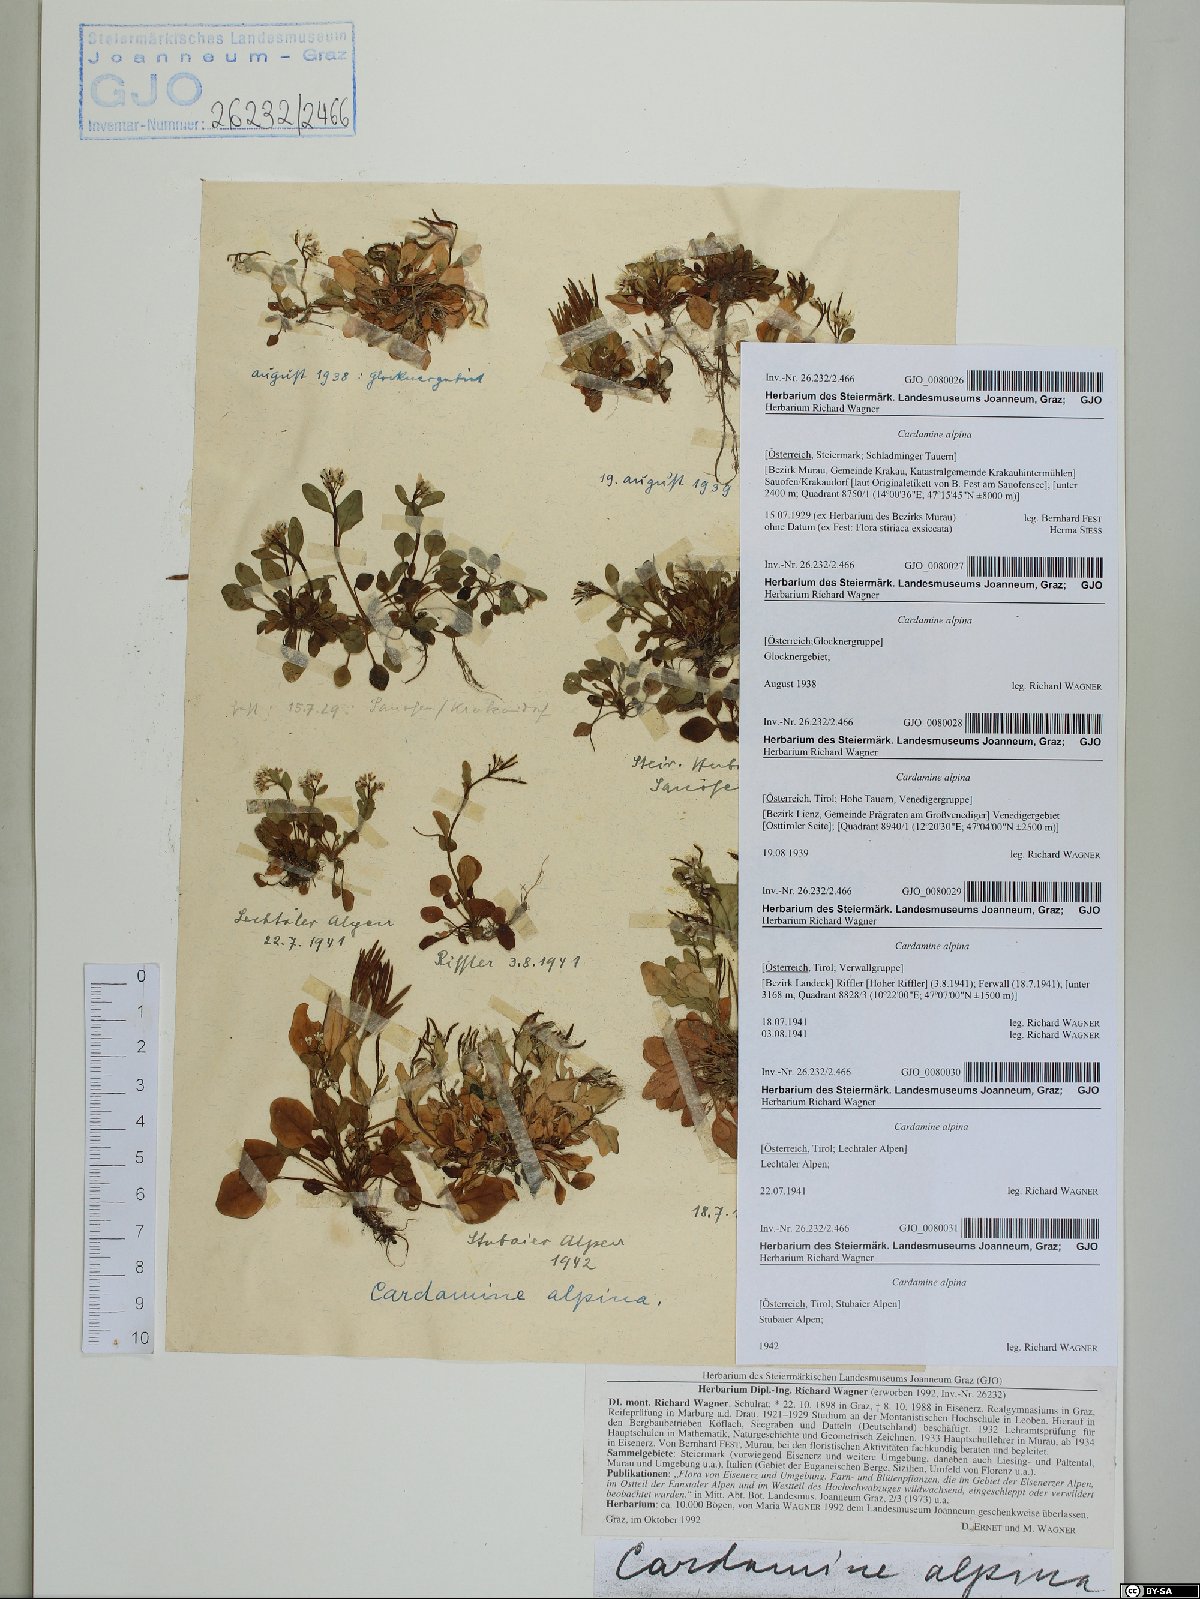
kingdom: Plantae
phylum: Tracheophyta
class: Magnoliopsida
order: Brassicales
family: Brassicaceae
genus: Cardamine
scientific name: Cardamine bellidifolia
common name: Alpine bittercress
